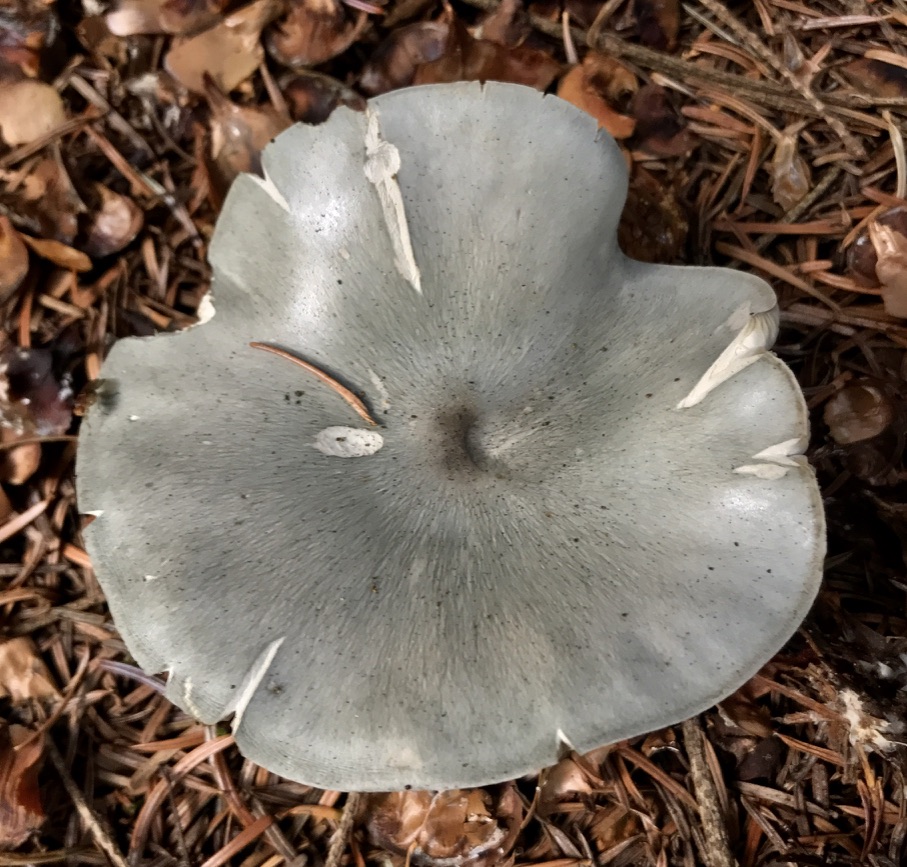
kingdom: Fungi
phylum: Basidiomycota
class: Agaricomycetes
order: Agaricales
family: Tricholomataceae
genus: Clitocybe
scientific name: Clitocybe odora
